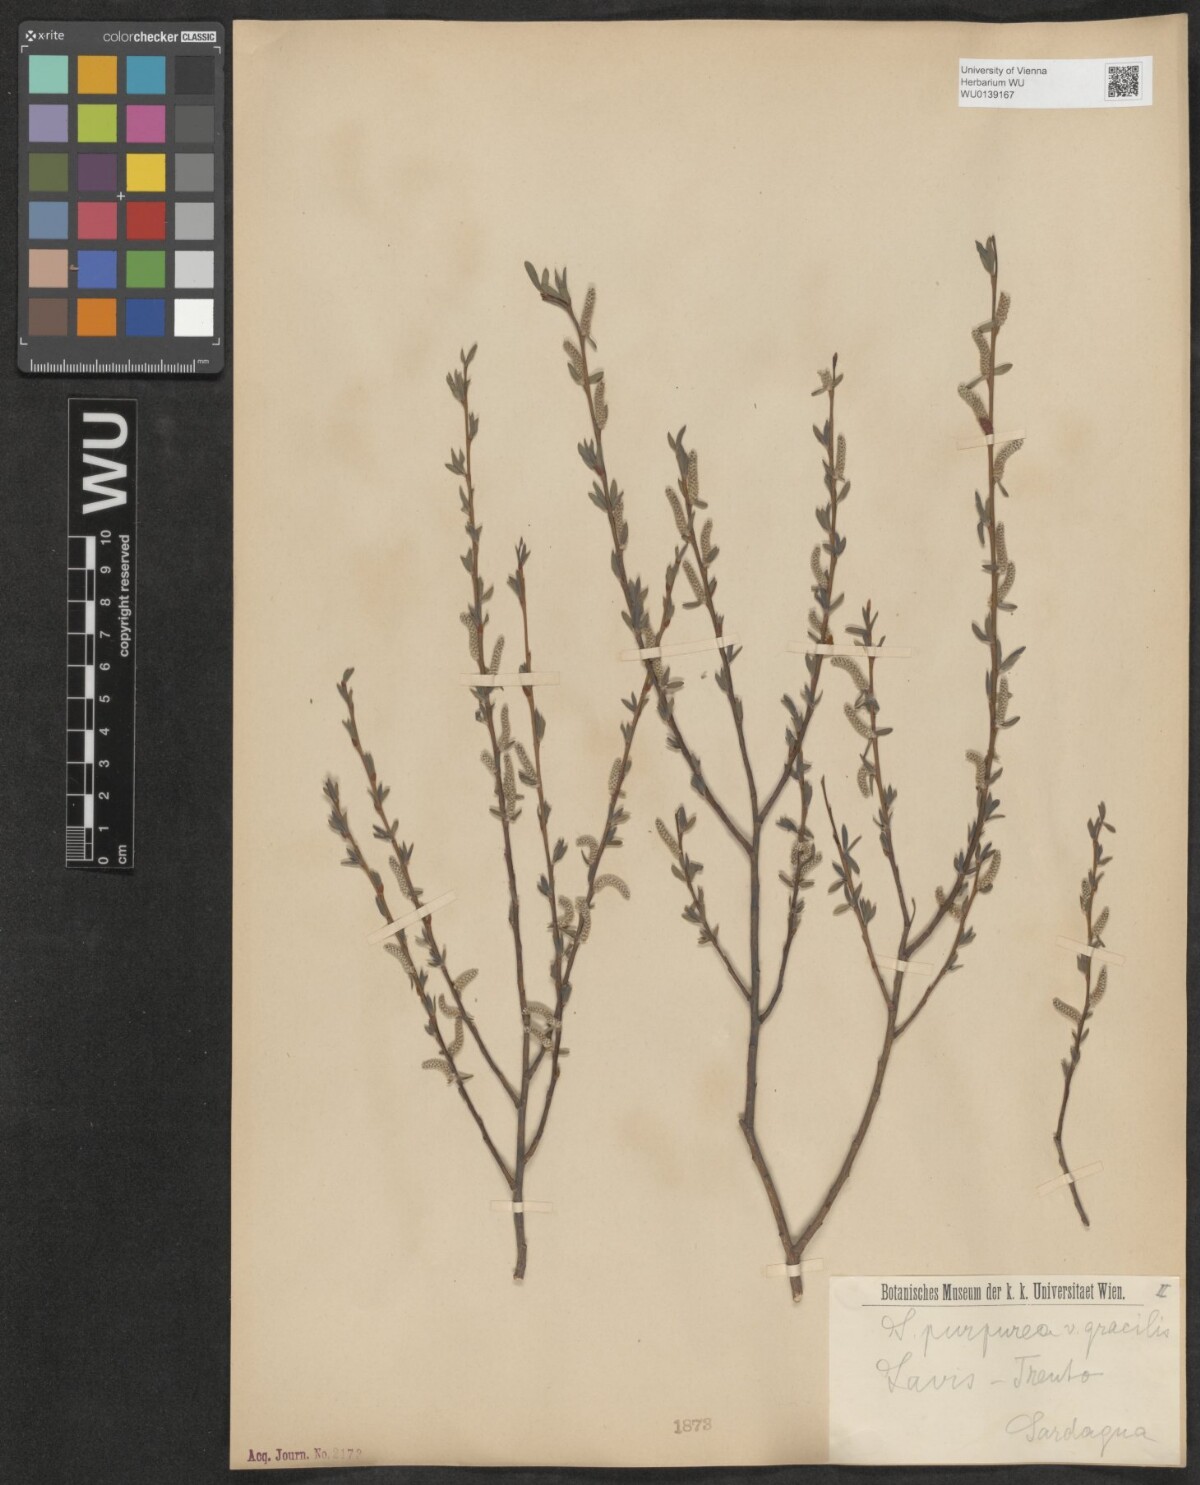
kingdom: Plantae
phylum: Tracheophyta
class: Magnoliopsida
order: Malpighiales
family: Salicaceae
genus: Salix
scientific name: Salix purpurea
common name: Purple willow
